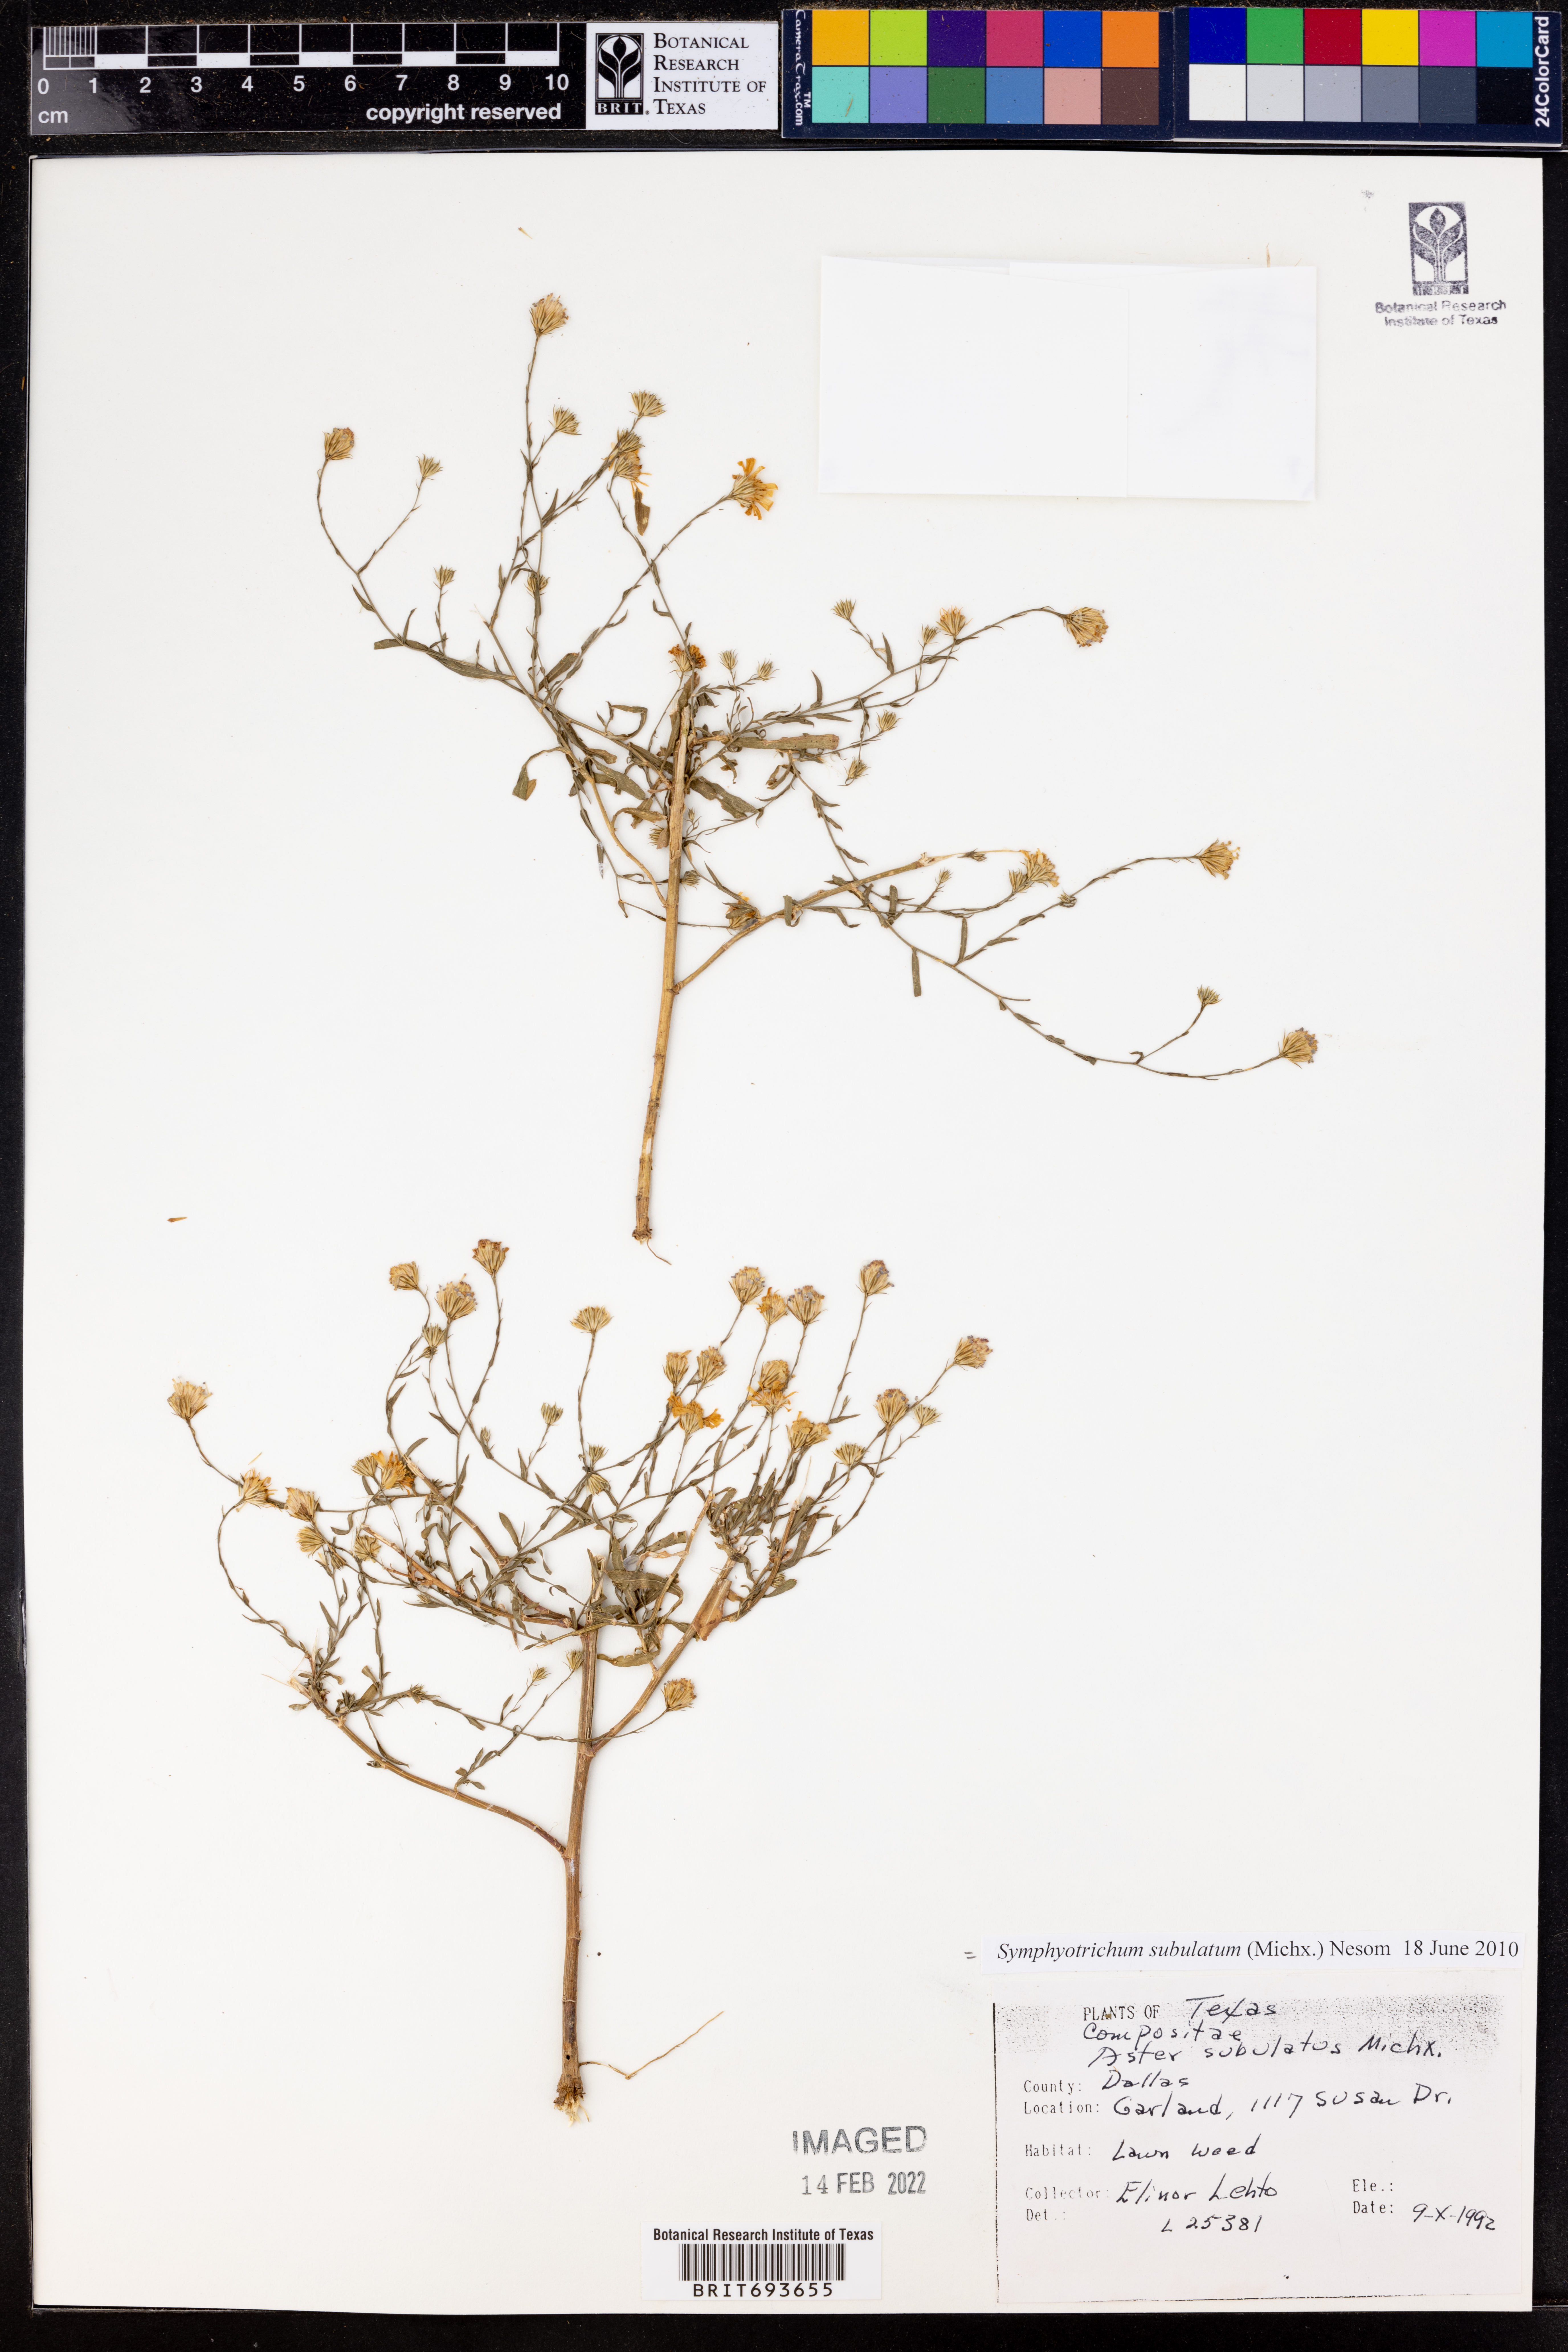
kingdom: Plantae
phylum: Tracheophyta
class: Magnoliopsida
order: Asterales
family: Asteraceae
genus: Symphyotrichum
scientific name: Symphyotrichum subulatum
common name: Annual saltmarsh aster
